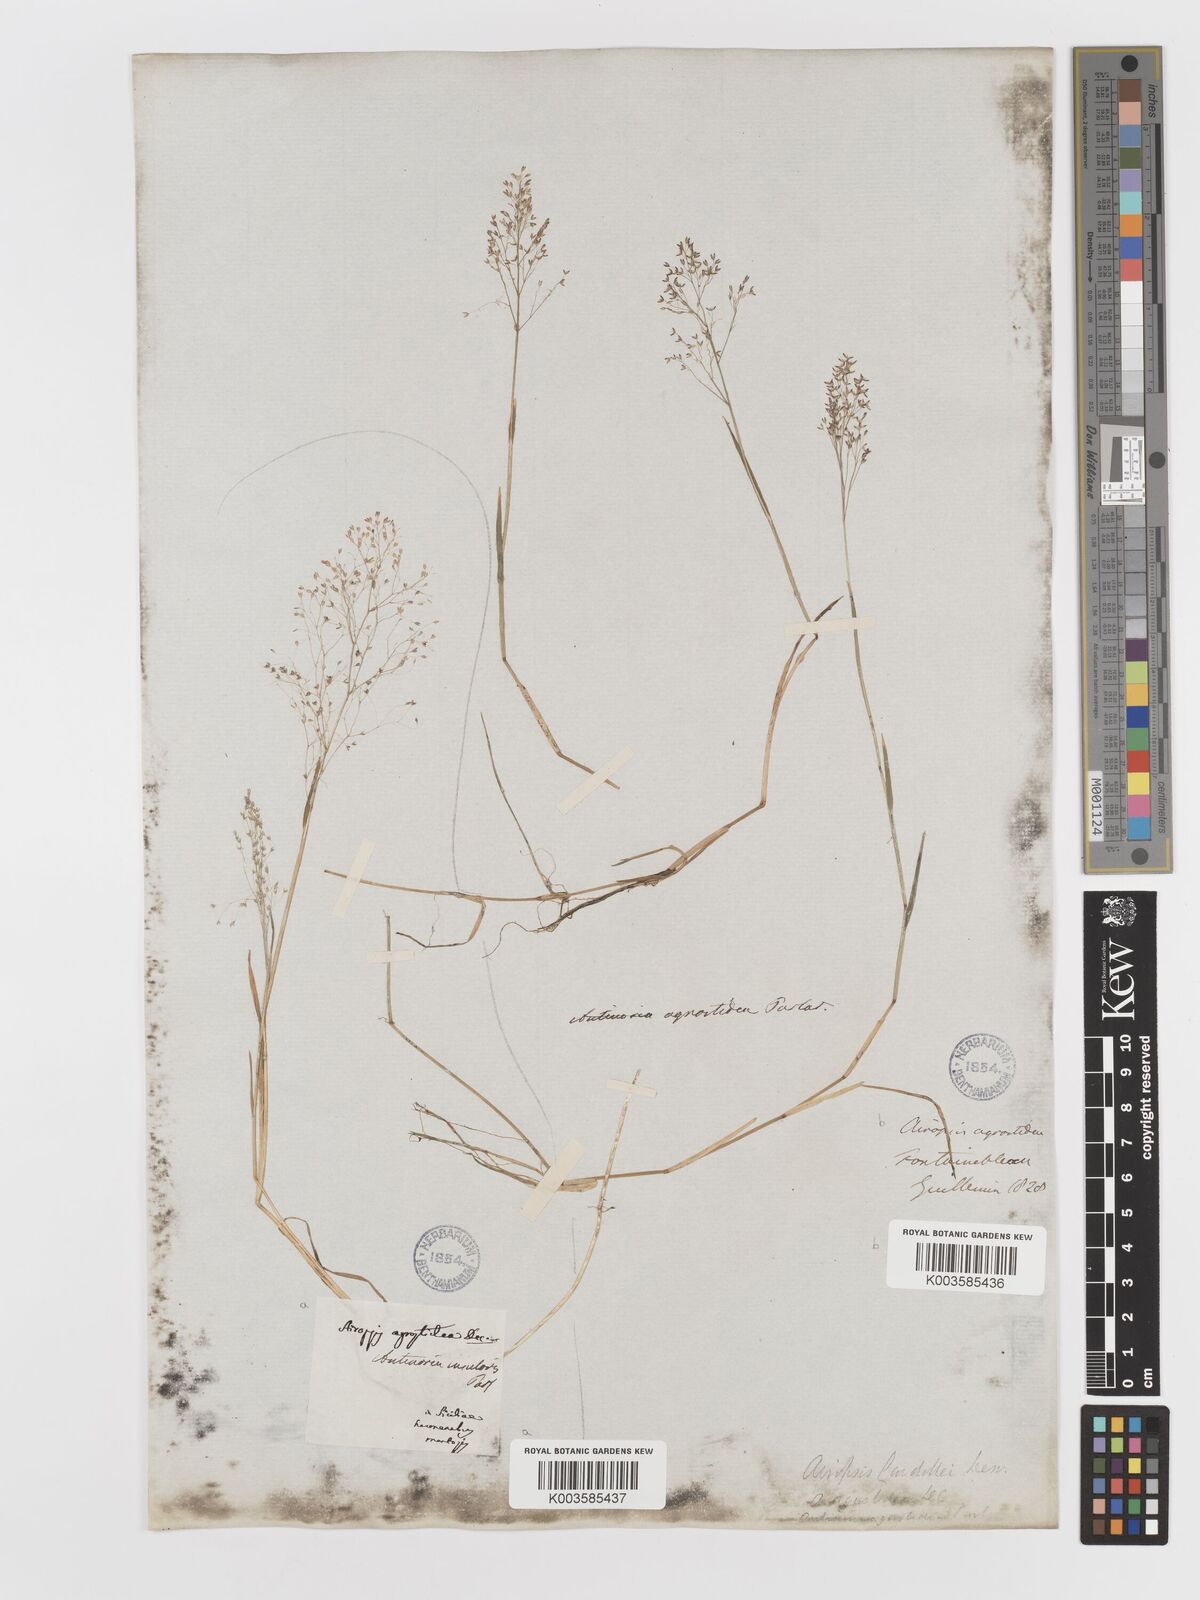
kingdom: Plantae
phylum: Tracheophyta
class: Liliopsida
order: Poales
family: Poaceae
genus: Antinoria
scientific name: Antinoria insularis
